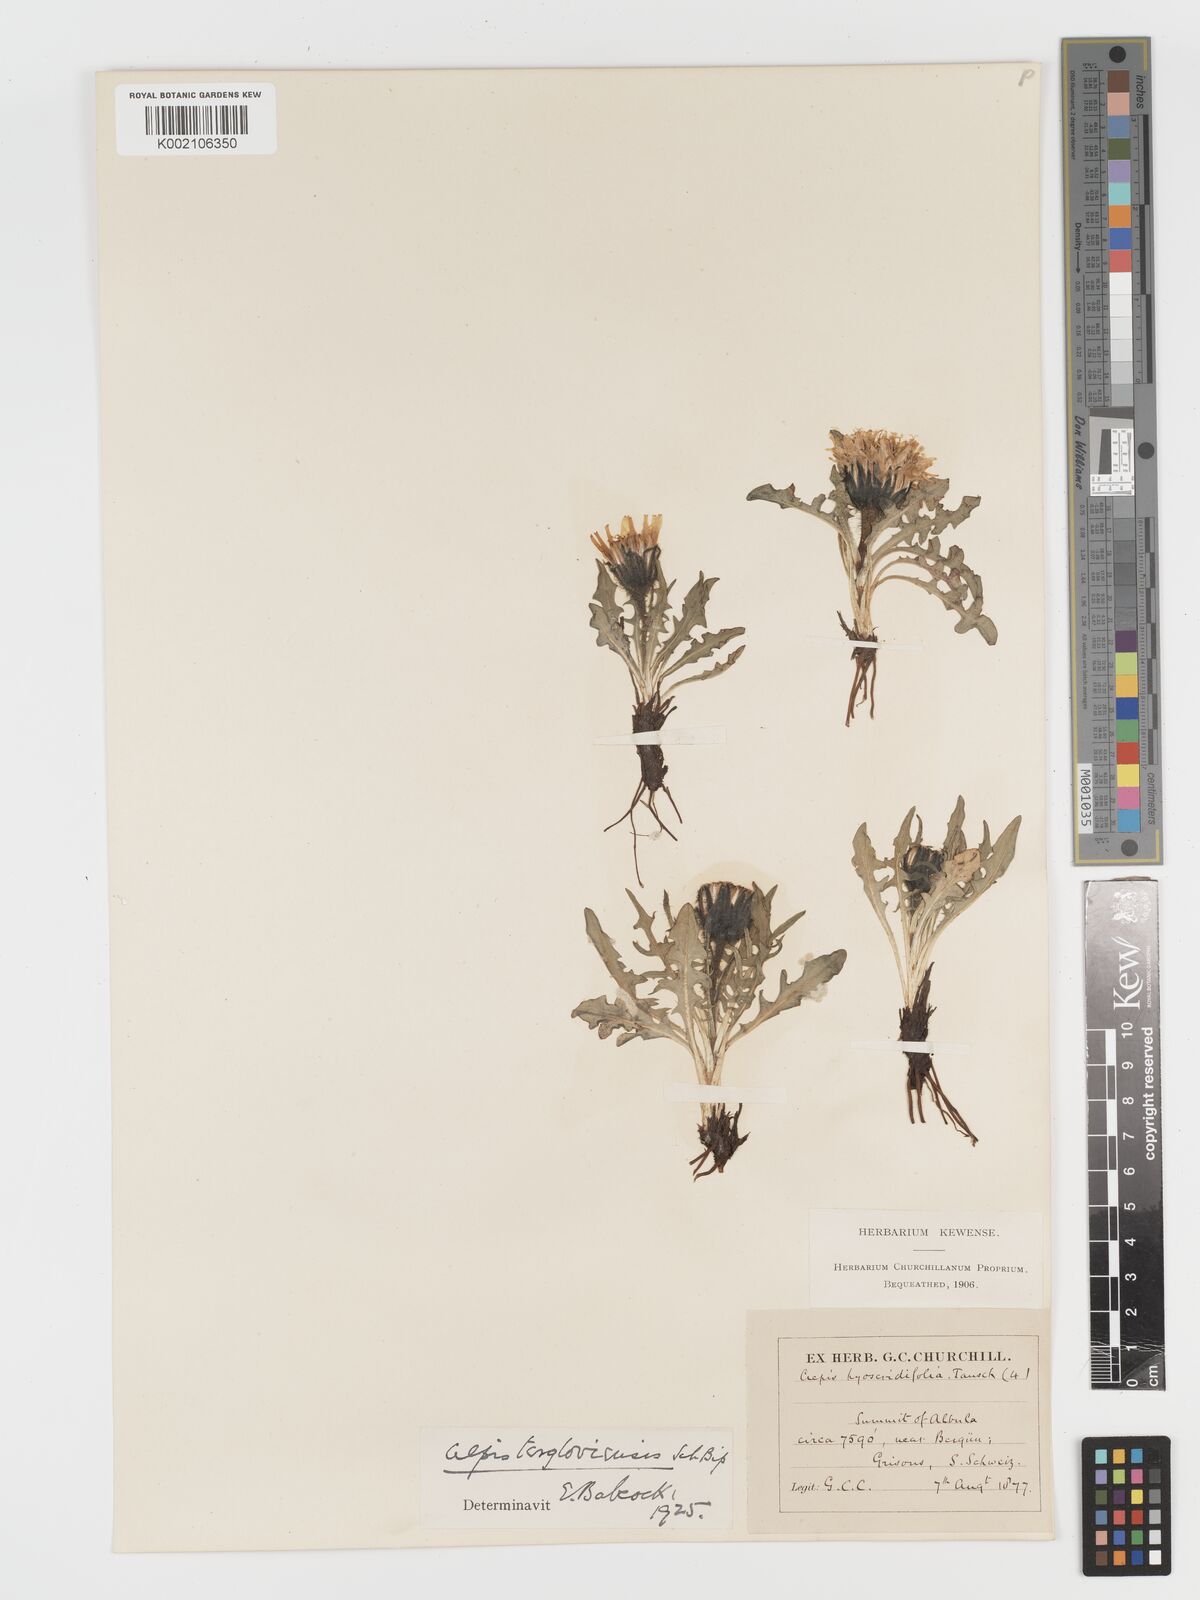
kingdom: Plantae
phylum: Tracheophyta
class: Magnoliopsida
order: Asterales
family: Asteraceae
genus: Crepis
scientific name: Crepis
